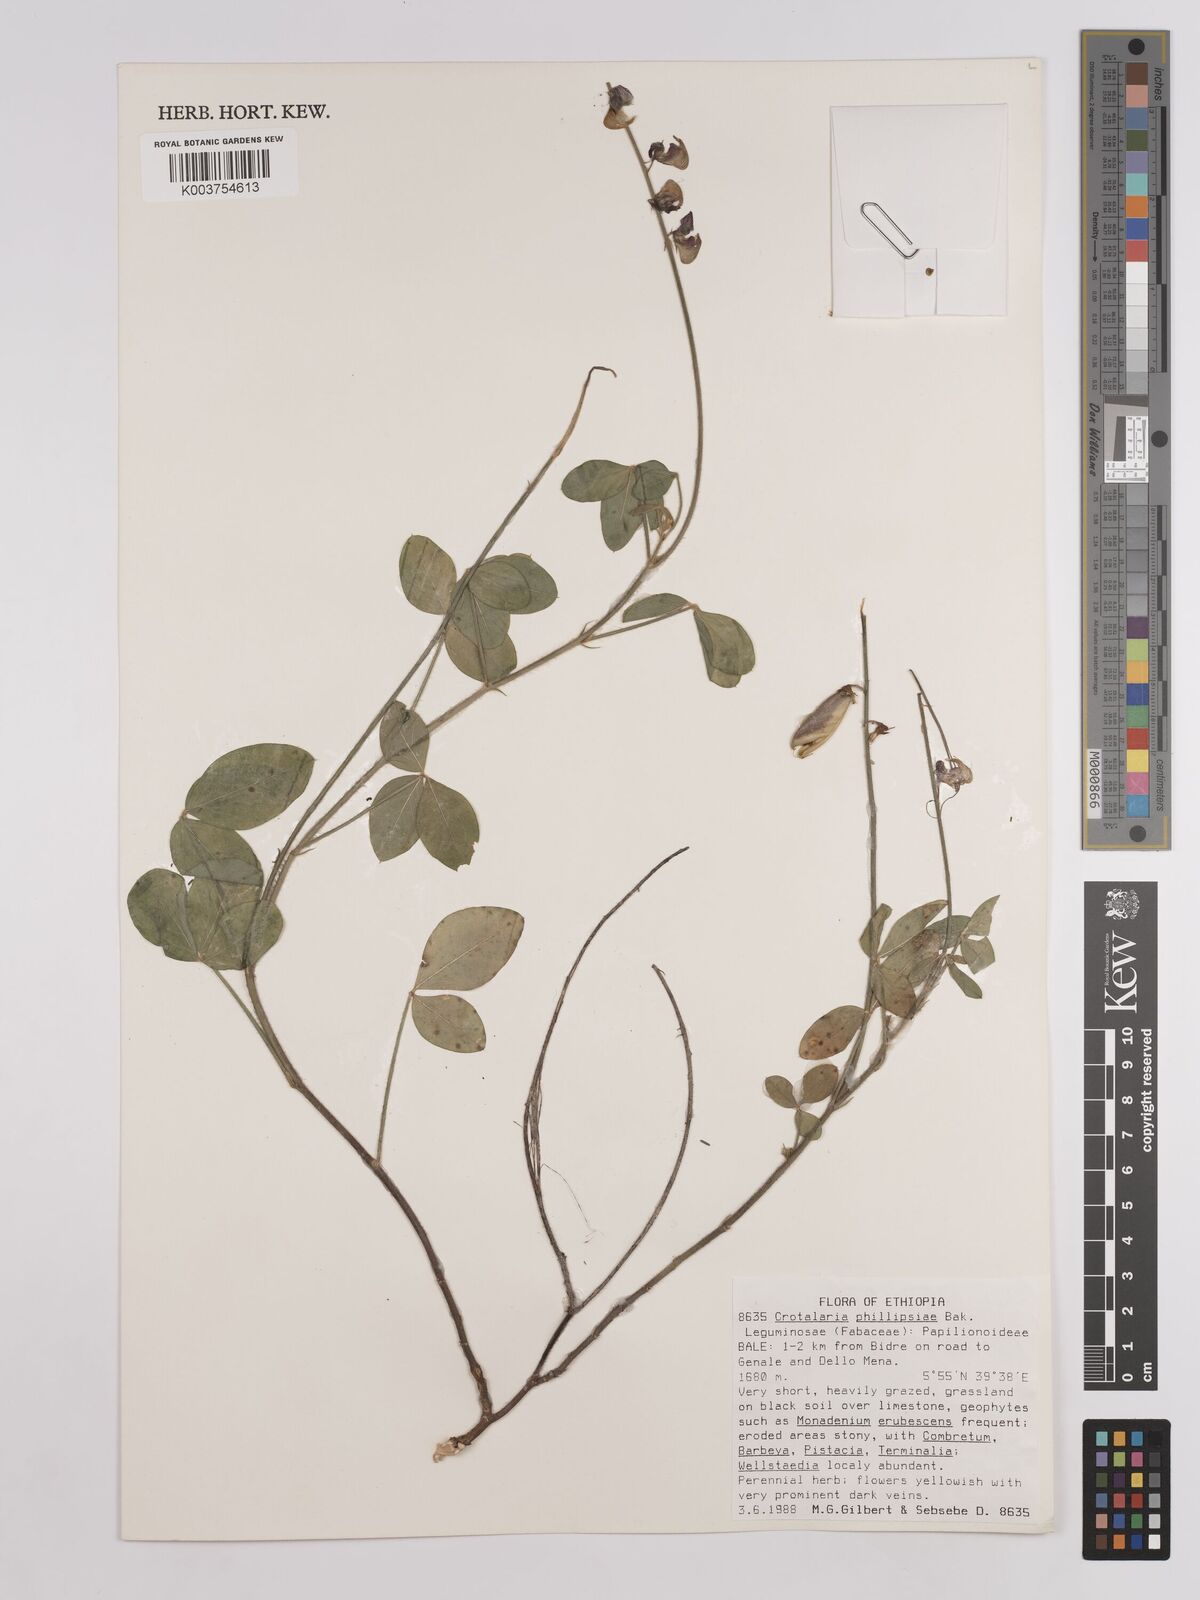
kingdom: Plantae
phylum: Tracheophyta
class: Magnoliopsida
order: Fabales
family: Fabaceae
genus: Crotalaria
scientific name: Crotalaria phillipsiae
